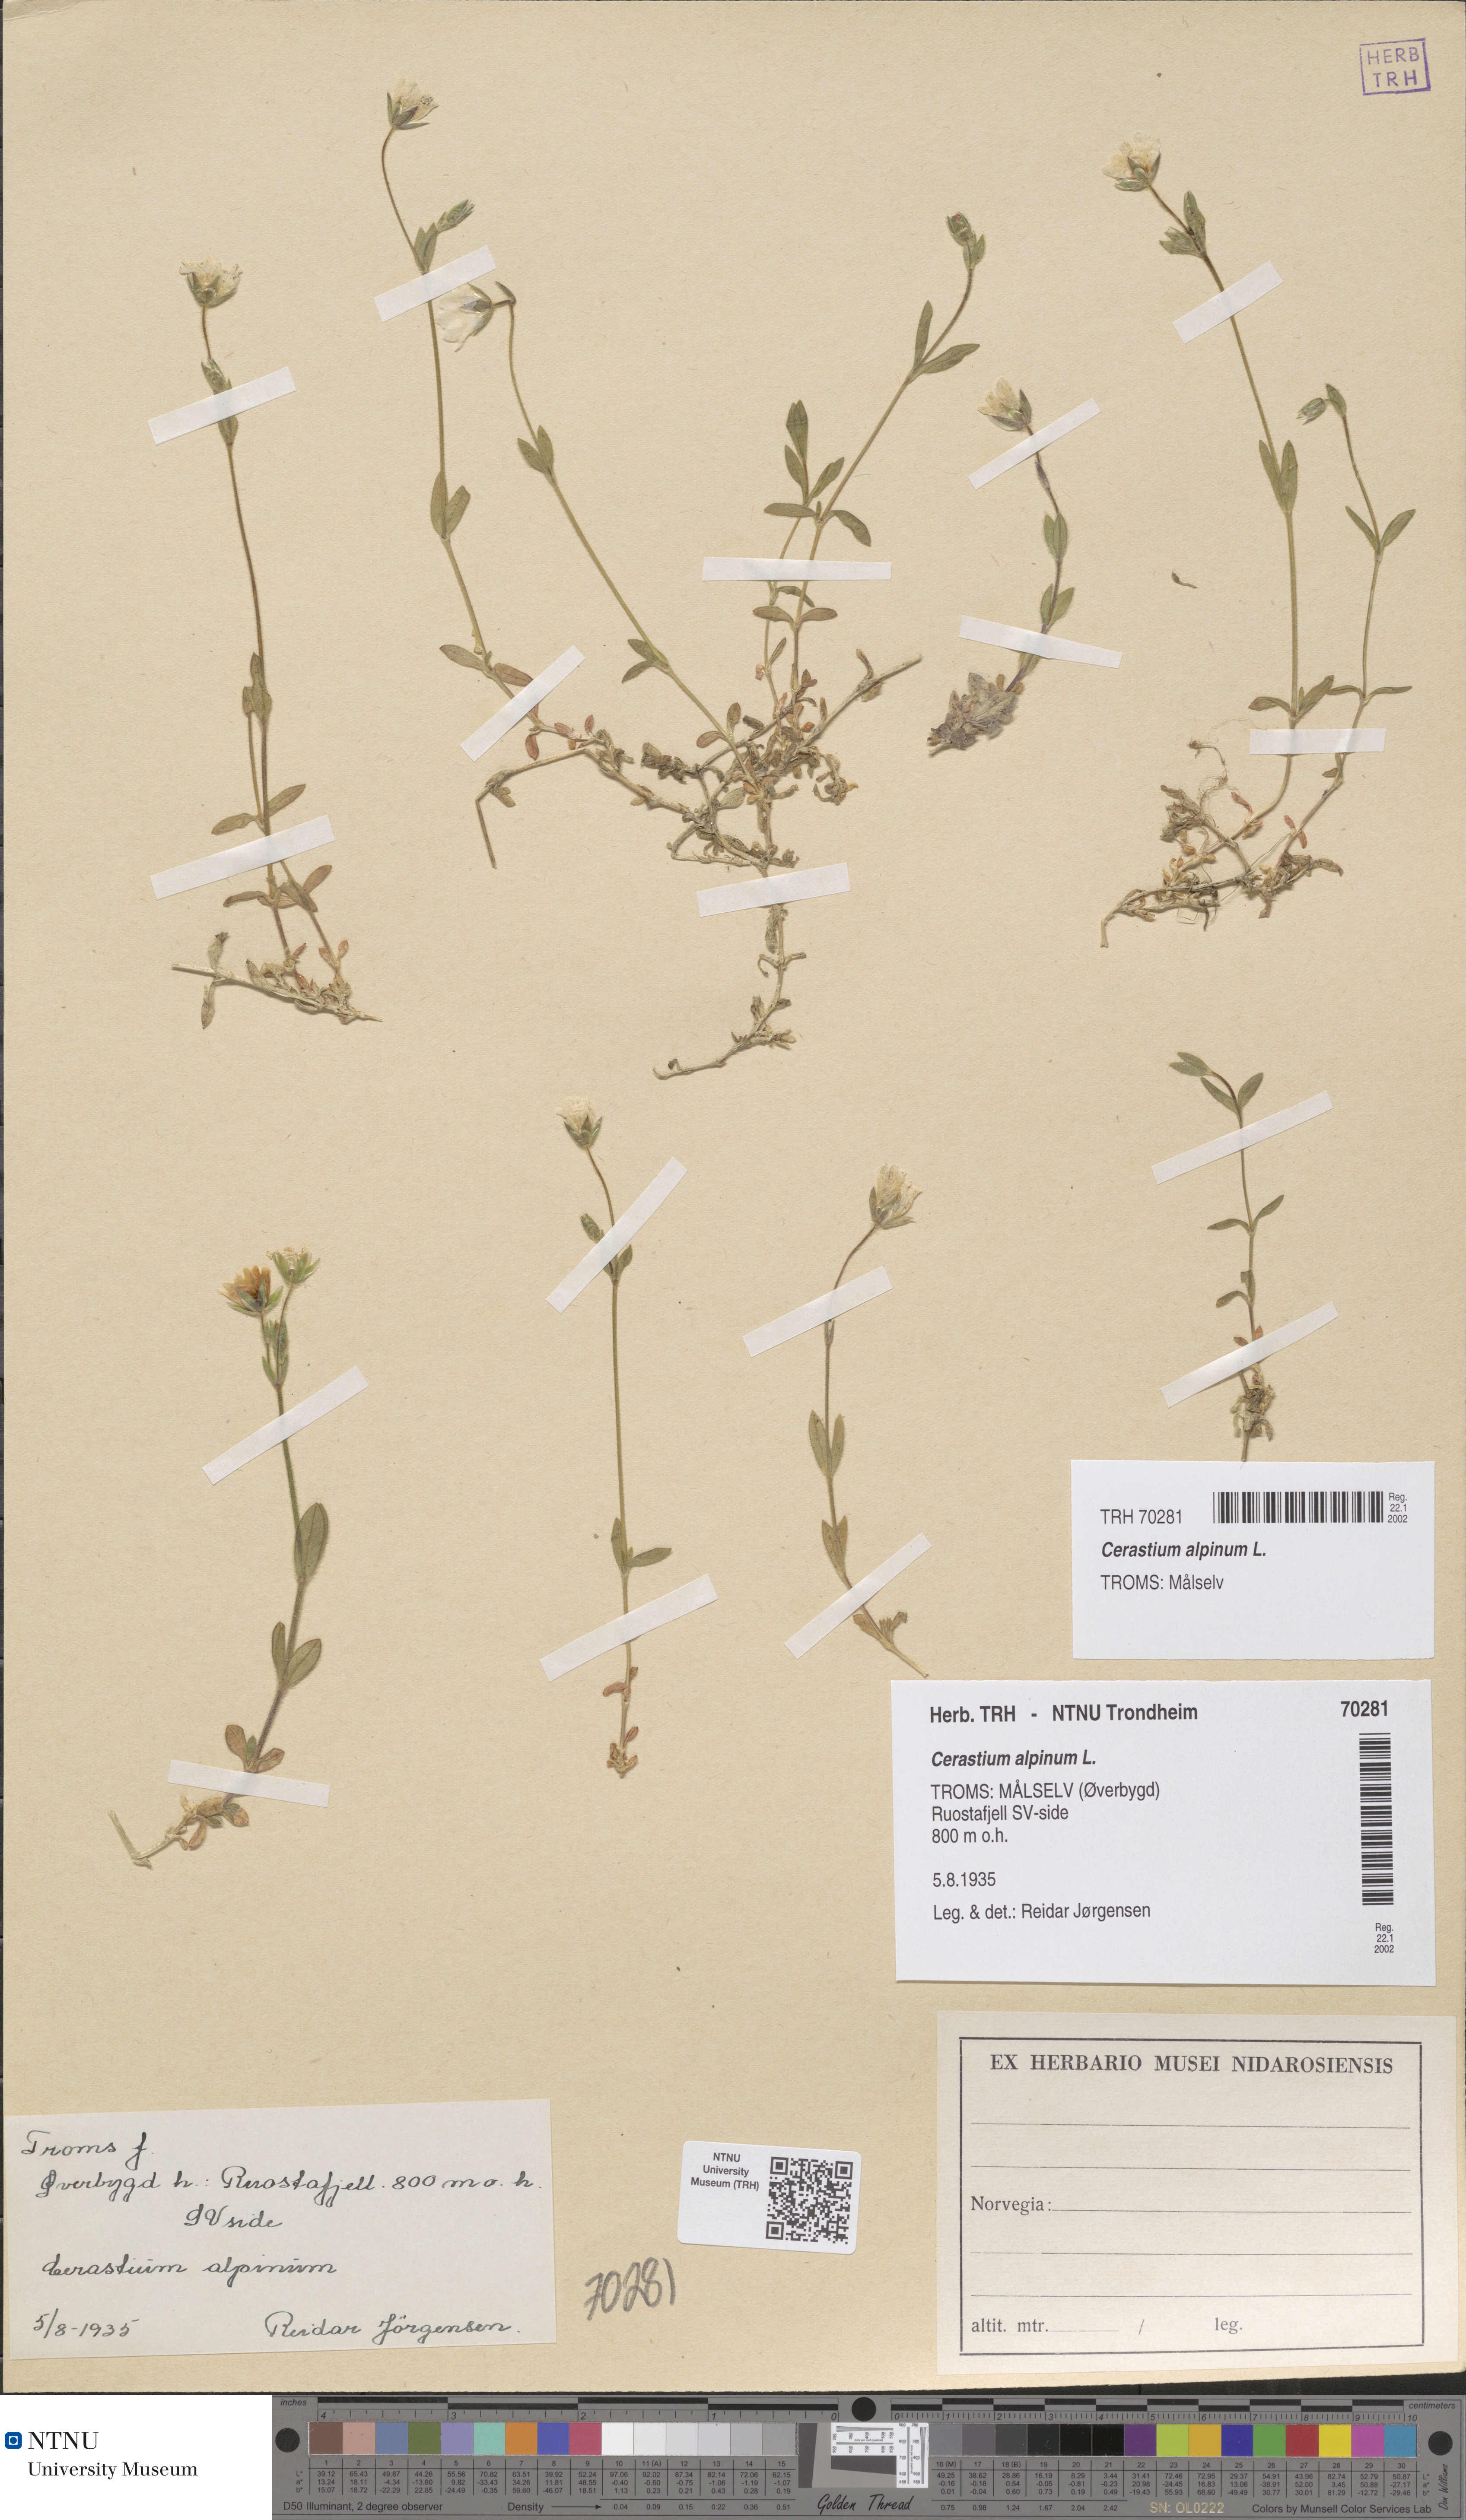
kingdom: Plantae
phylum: Tracheophyta
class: Magnoliopsida
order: Caryophyllales
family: Caryophyllaceae
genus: Cerastium
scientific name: Cerastium alpinum
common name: Alpine mouse-ear
